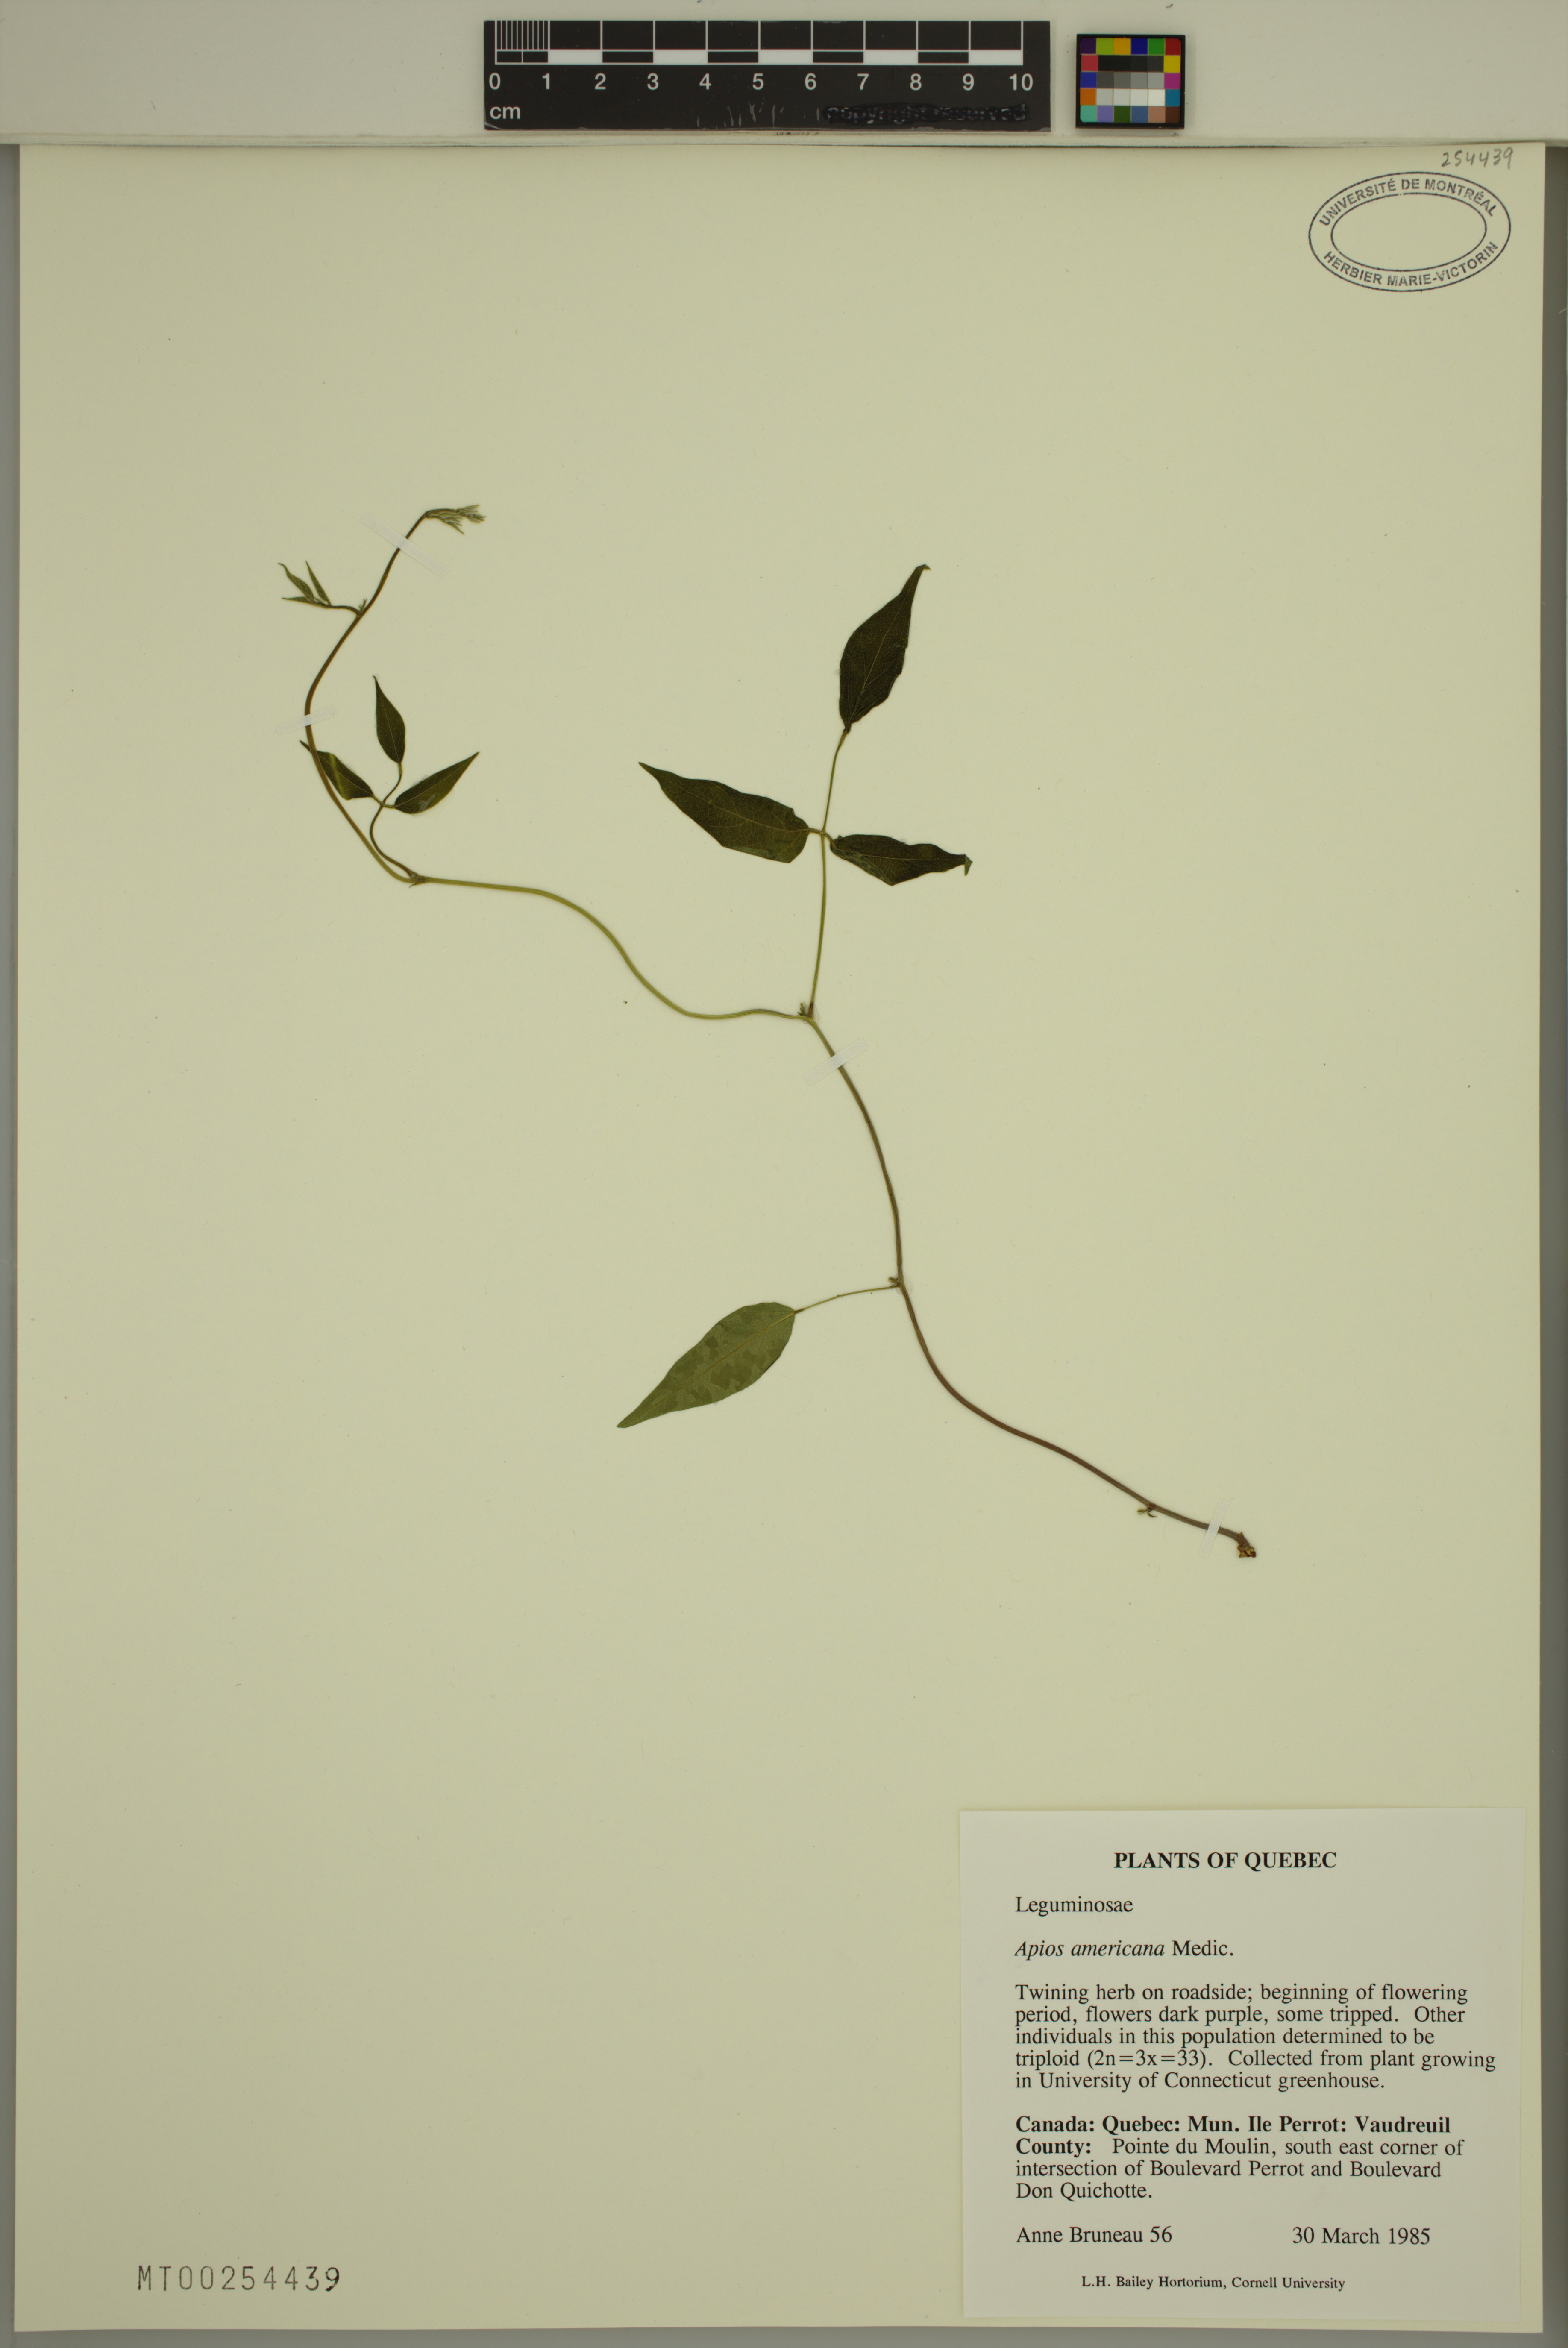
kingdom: Plantae
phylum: Tracheophyta
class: Magnoliopsida
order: Fabales
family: Fabaceae
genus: Apios
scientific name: Apios americana
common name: American potato-bean
